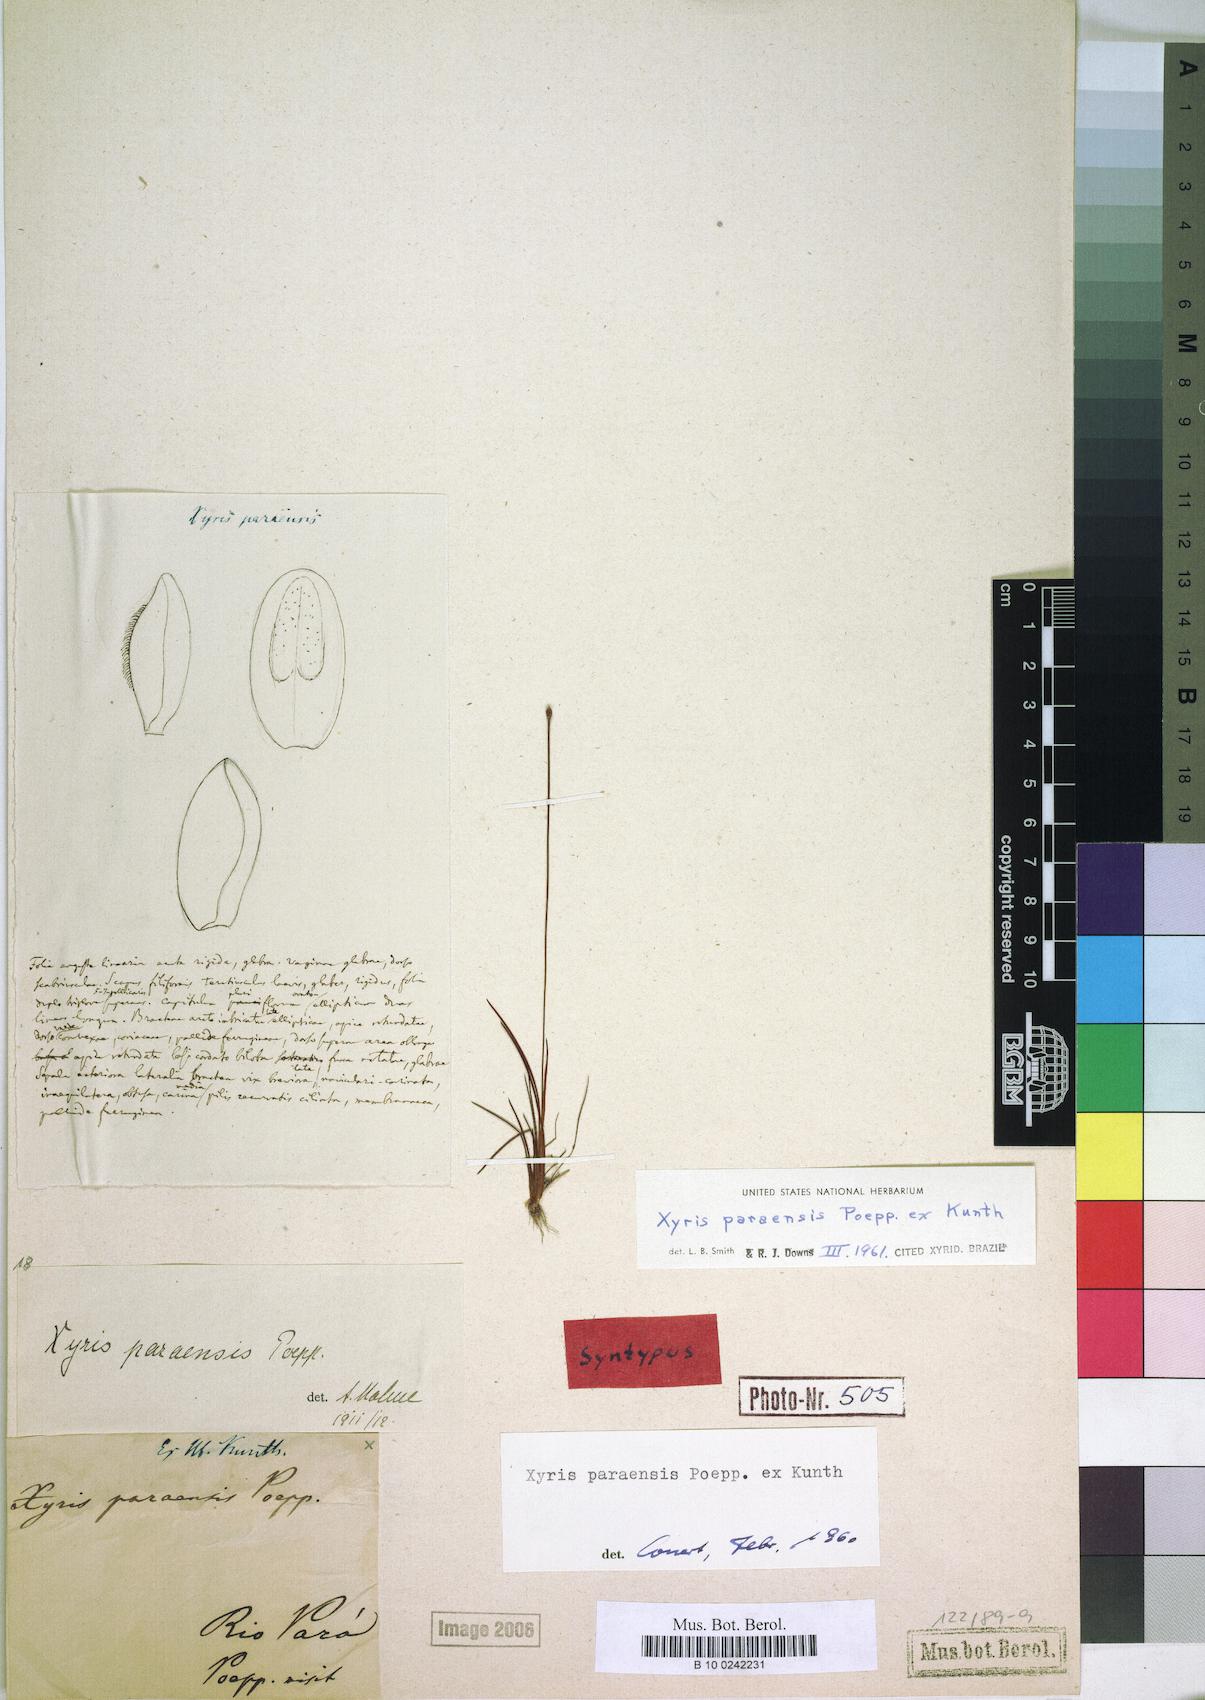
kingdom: Plantae
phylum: Tracheophyta
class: Liliopsida
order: Poales
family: Xyridaceae
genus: Xyris
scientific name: Xyris paraensis
